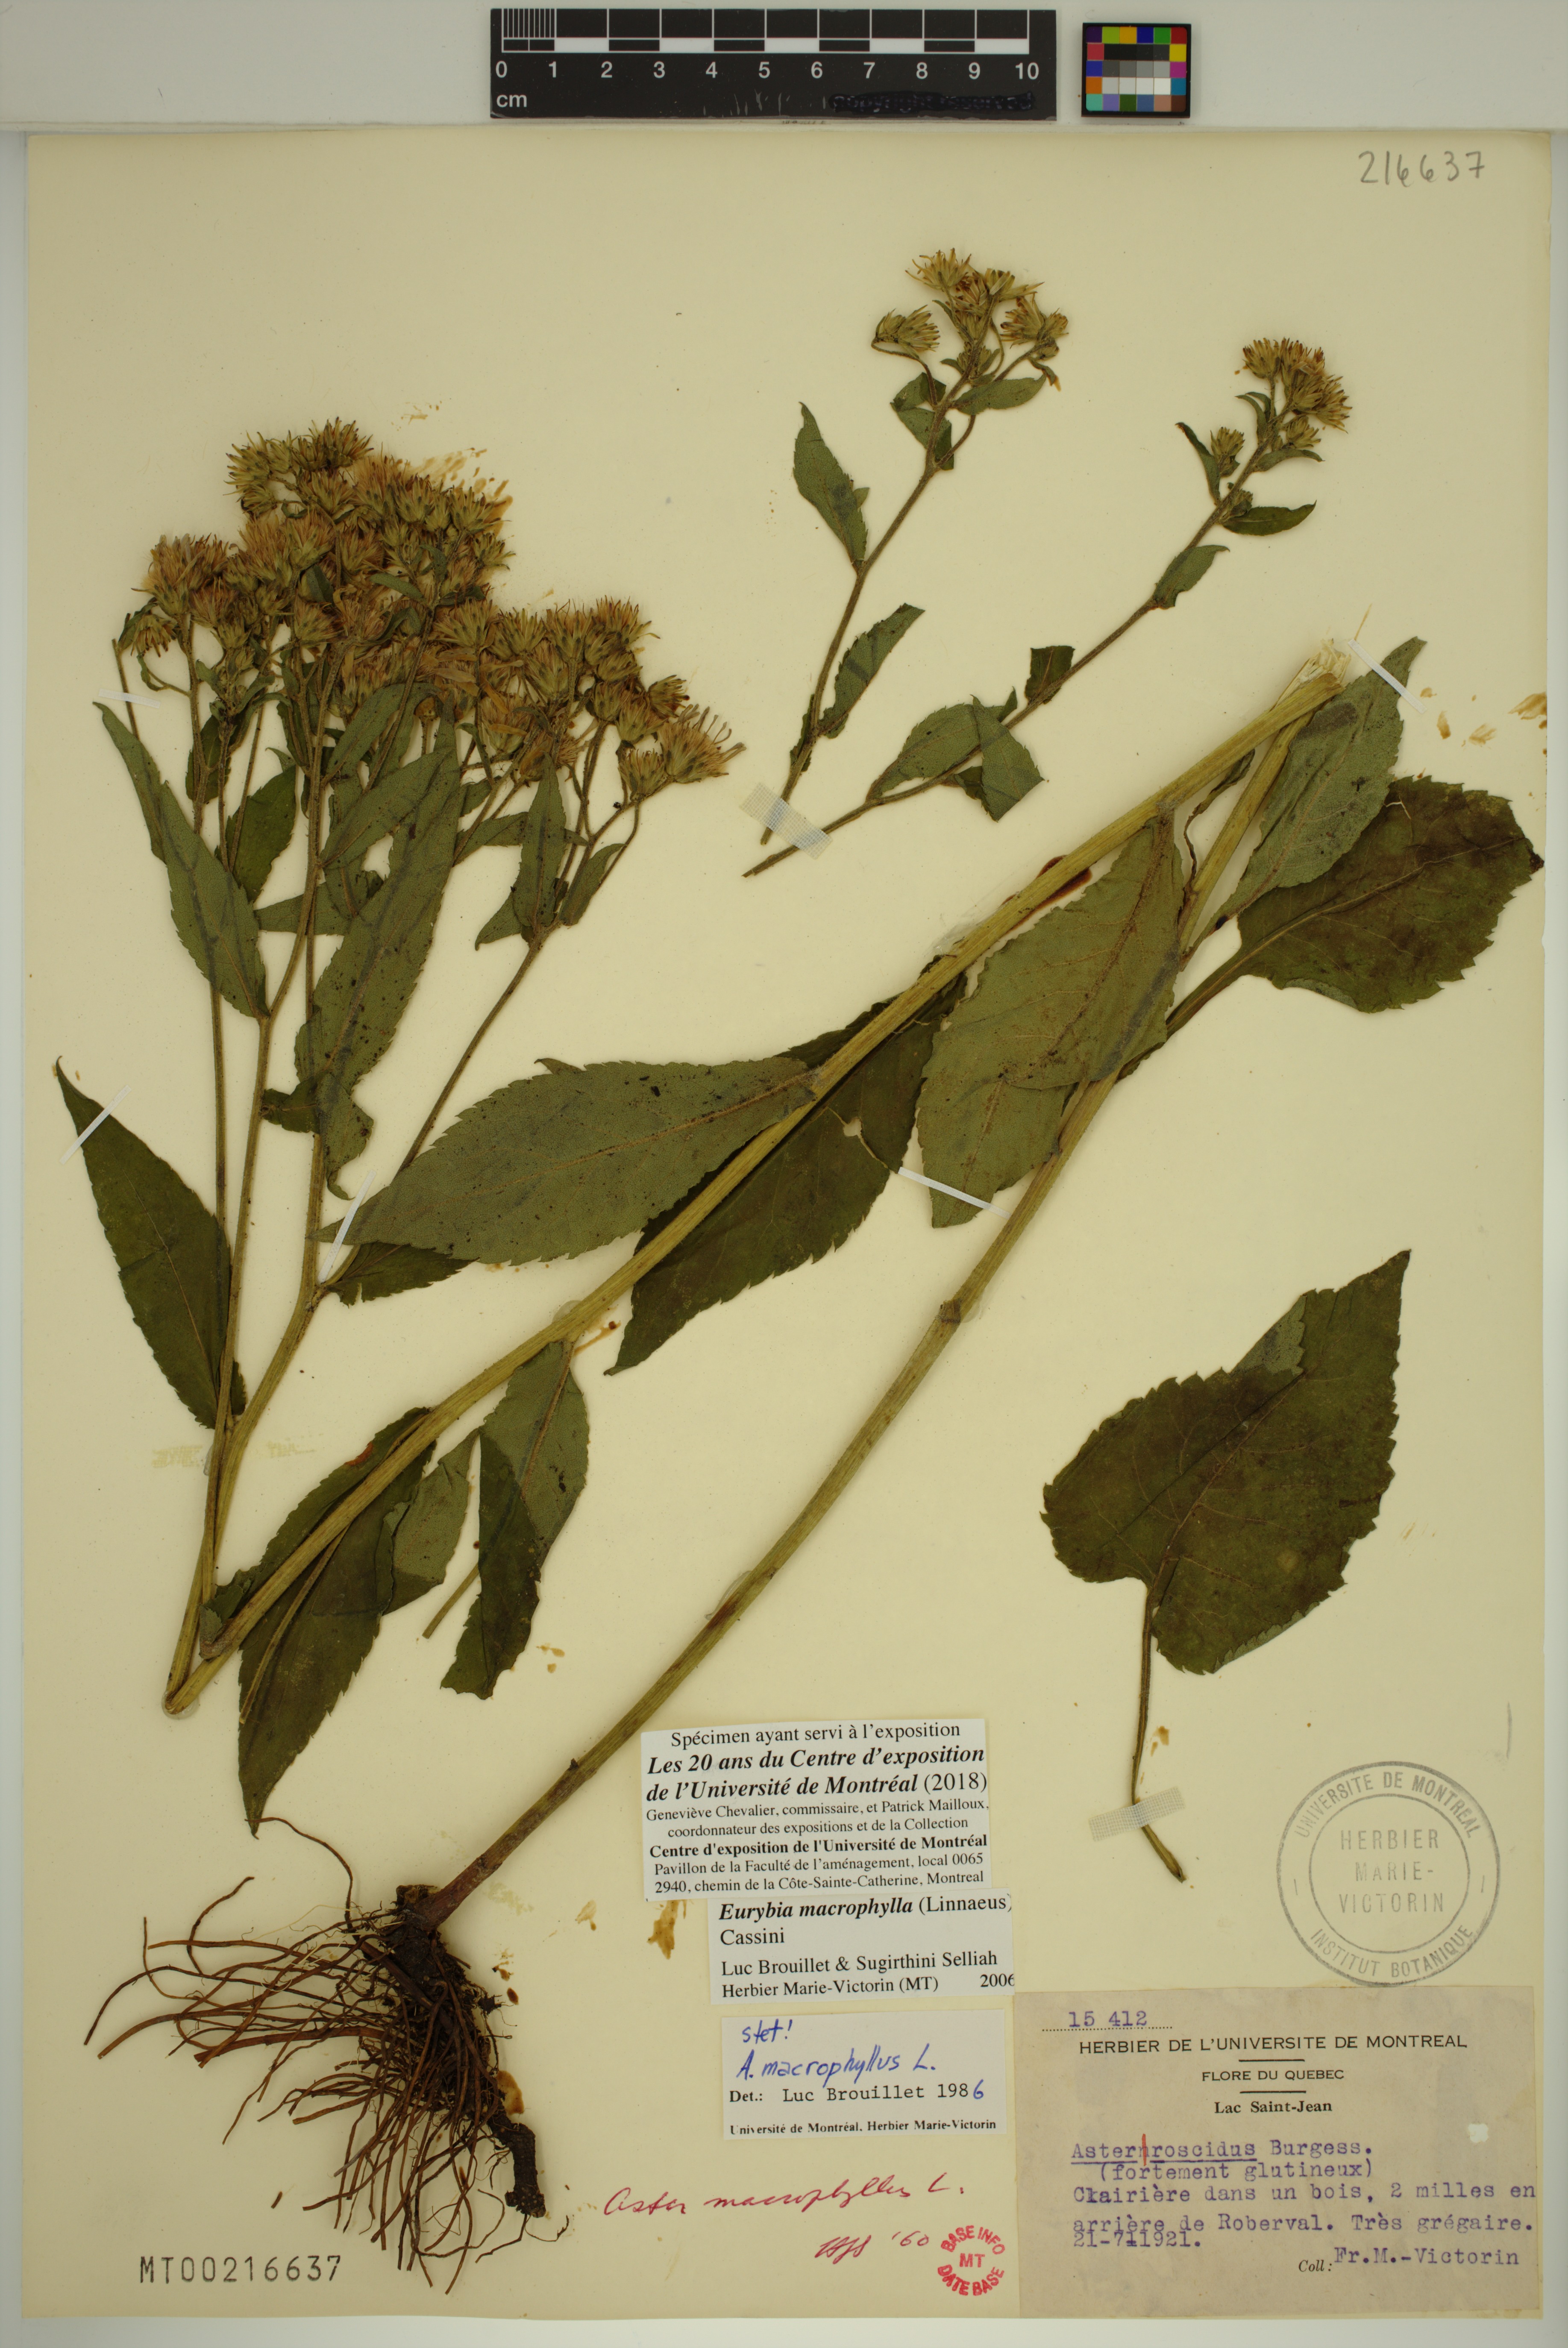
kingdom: Plantae
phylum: Tracheophyta
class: Magnoliopsida
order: Asterales
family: Asteraceae
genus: Eurybia
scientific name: Eurybia macrophylla
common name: Big-leaved aster
